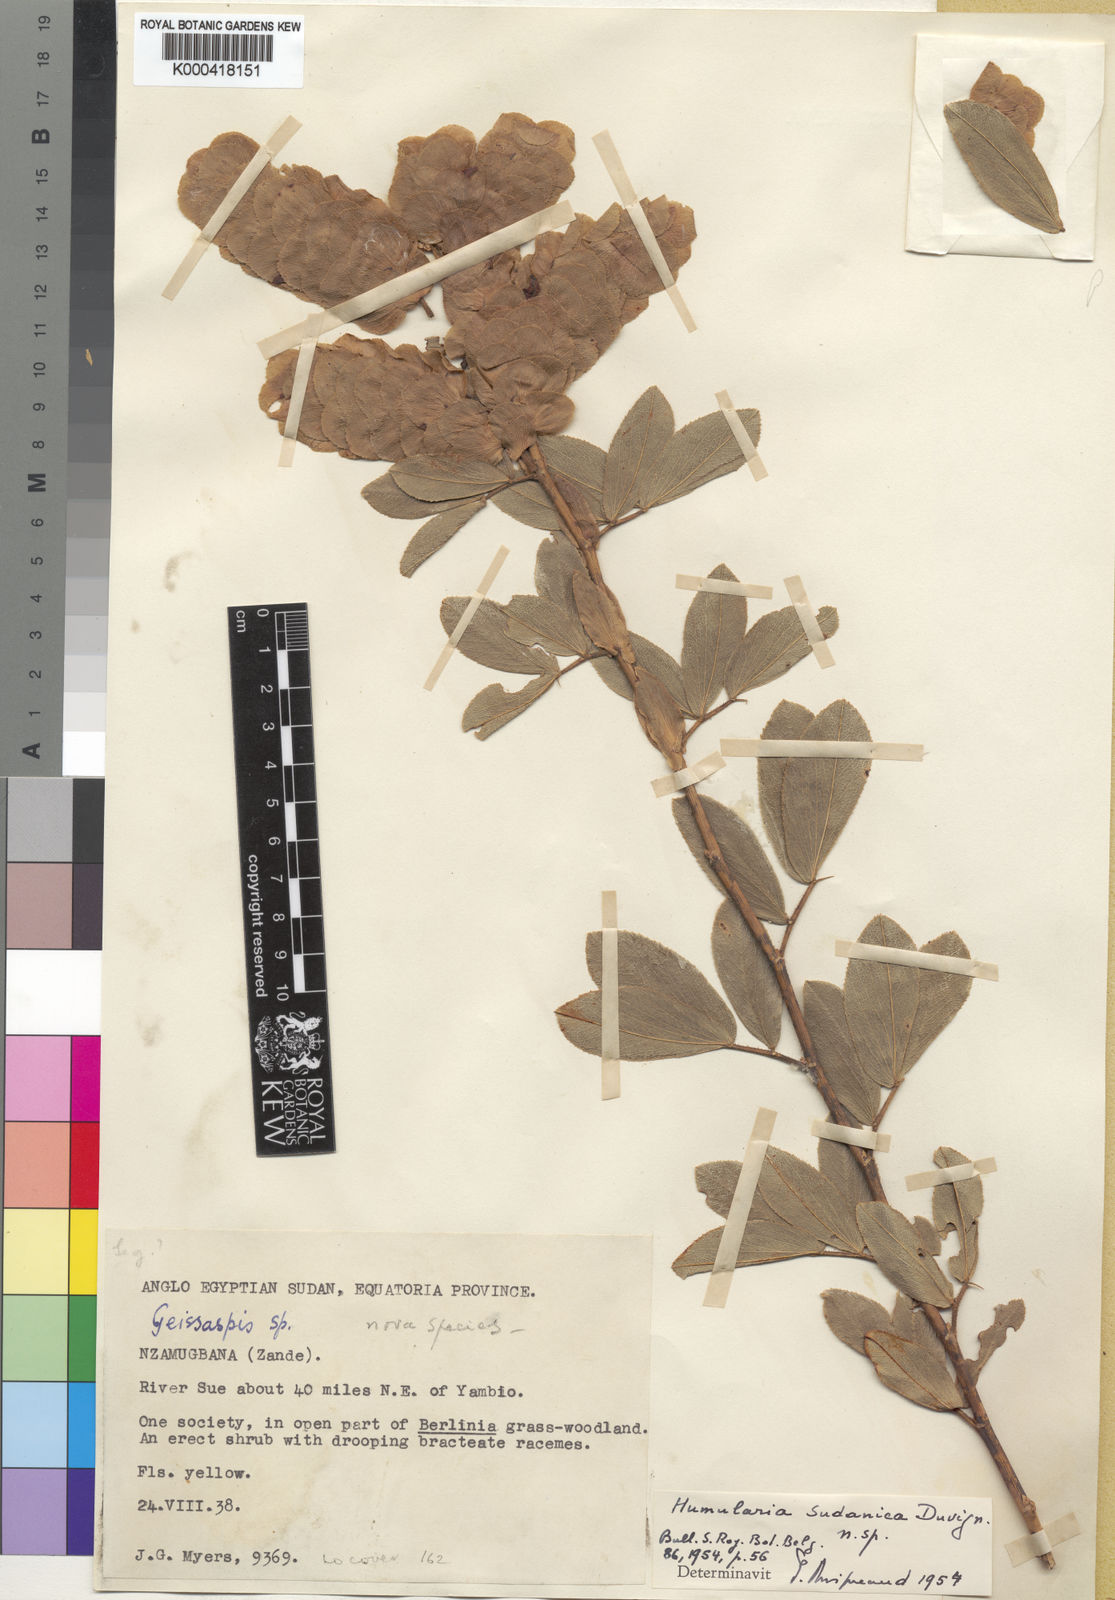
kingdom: Plantae
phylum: Tracheophyta
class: Magnoliopsida
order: Fabales
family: Fabaceae
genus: Humularia
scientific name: Humularia sudanica
